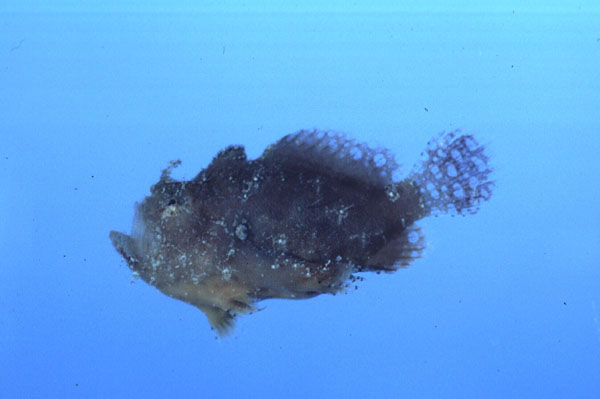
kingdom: Animalia
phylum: Chordata
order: Lophiiformes
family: Antennariidae
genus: Antennarius
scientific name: Antennarius
